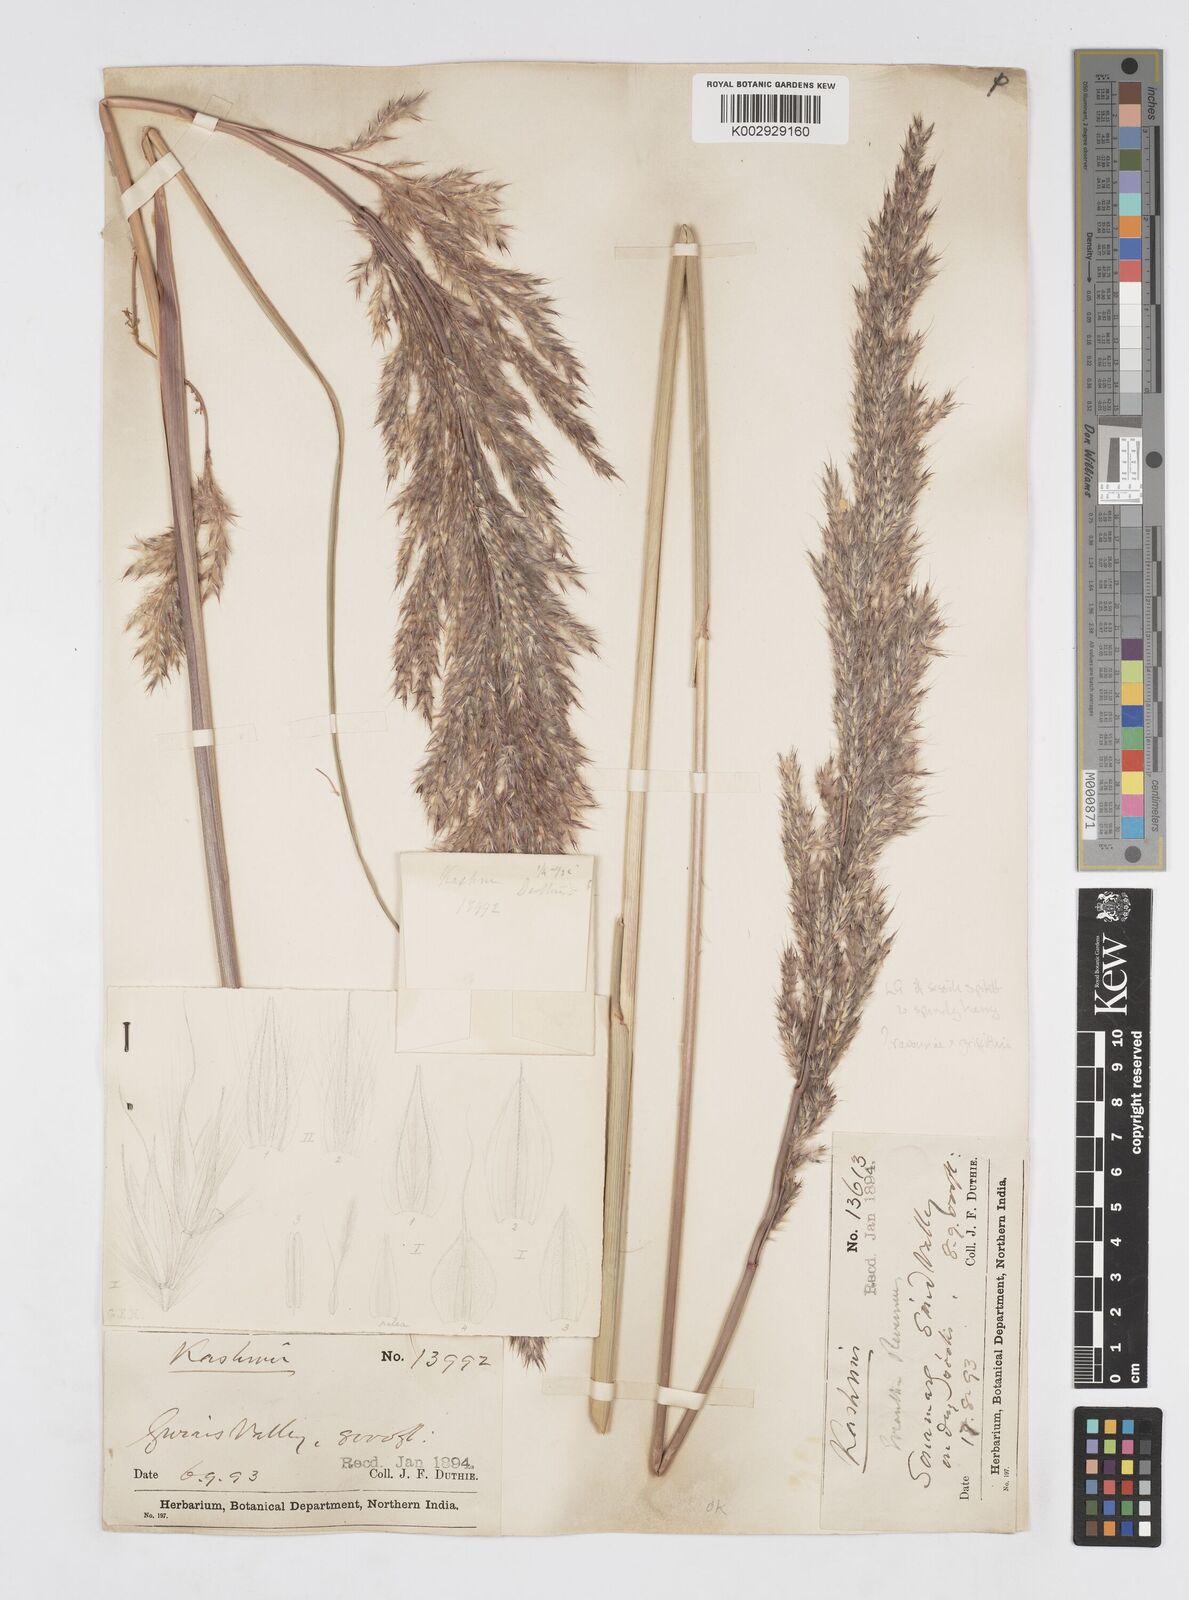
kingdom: Plantae
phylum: Tracheophyta
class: Liliopsida
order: Poales
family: Poaceae
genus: Saccharum
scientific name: Saccharum griffithii
